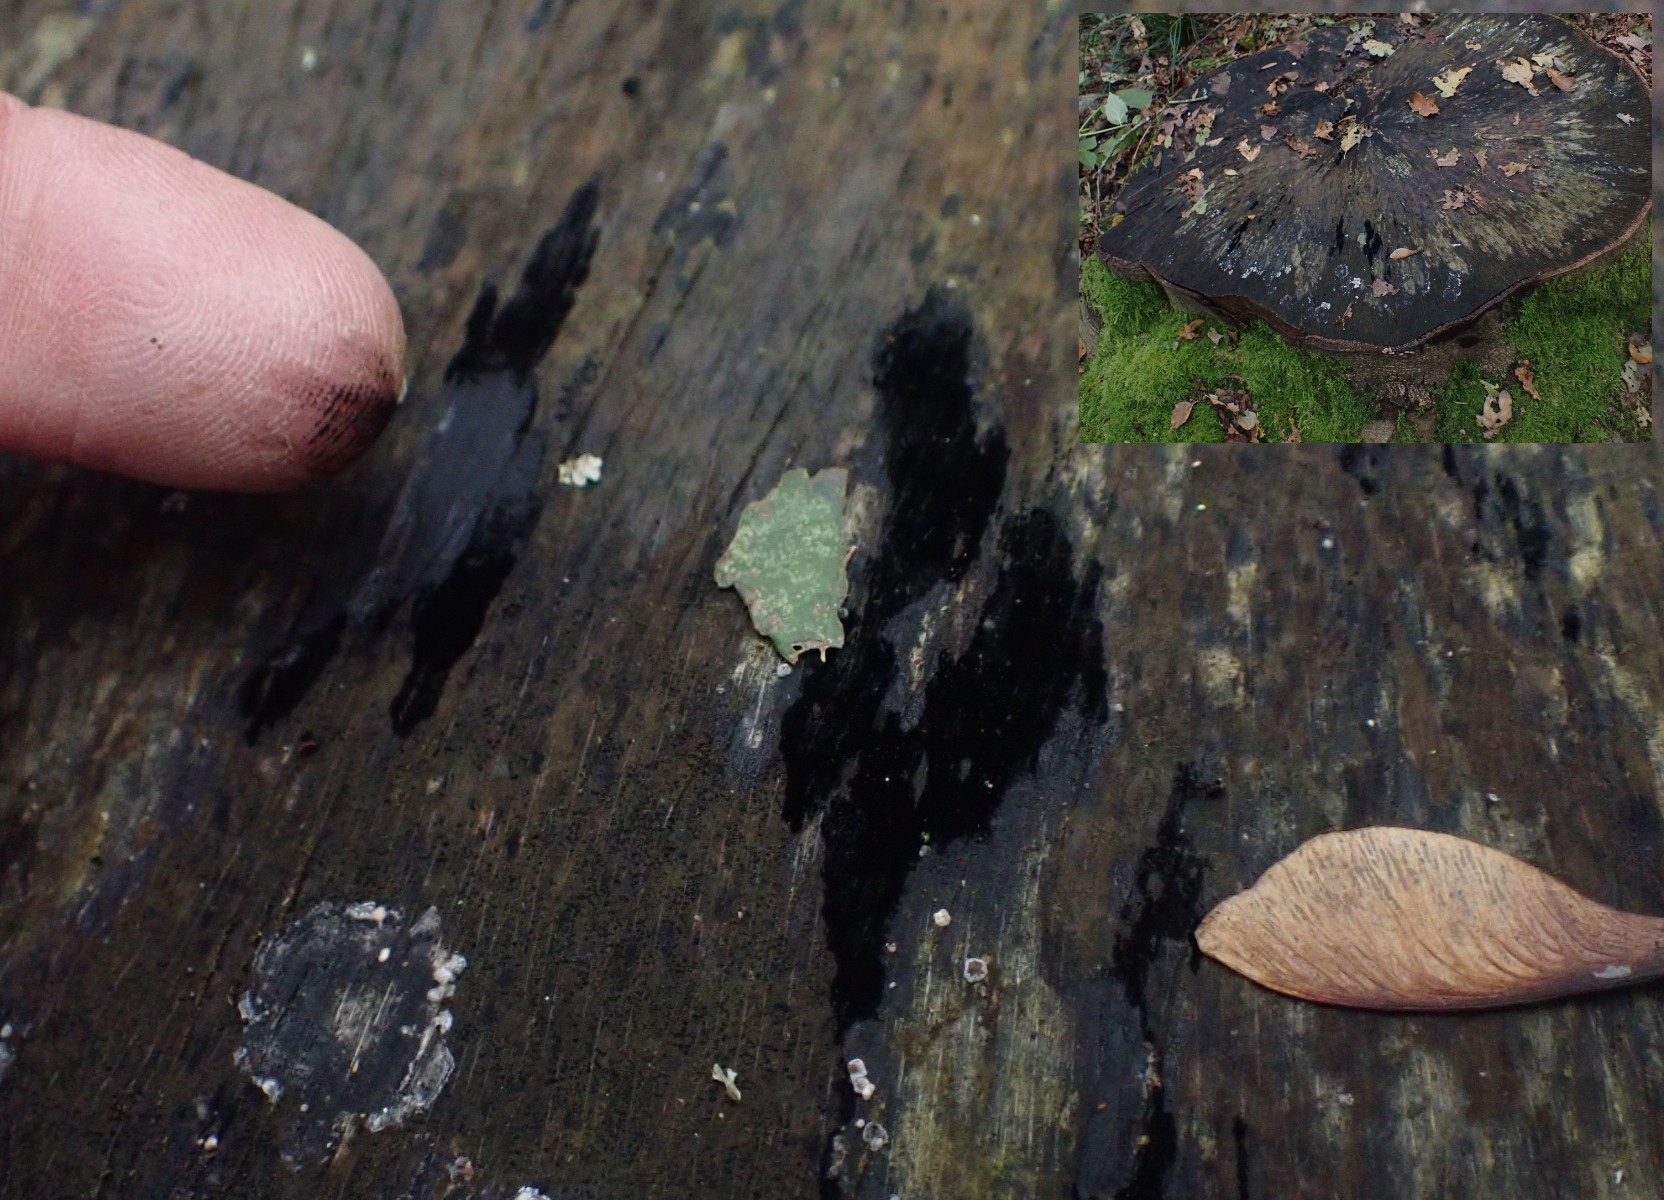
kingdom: Fungi
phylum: Ascomycota
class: Leotiomycetes
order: Helotiales
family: Helotiaceae
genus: Bispora
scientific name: Bispora pallescens
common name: måtte-snitskive
